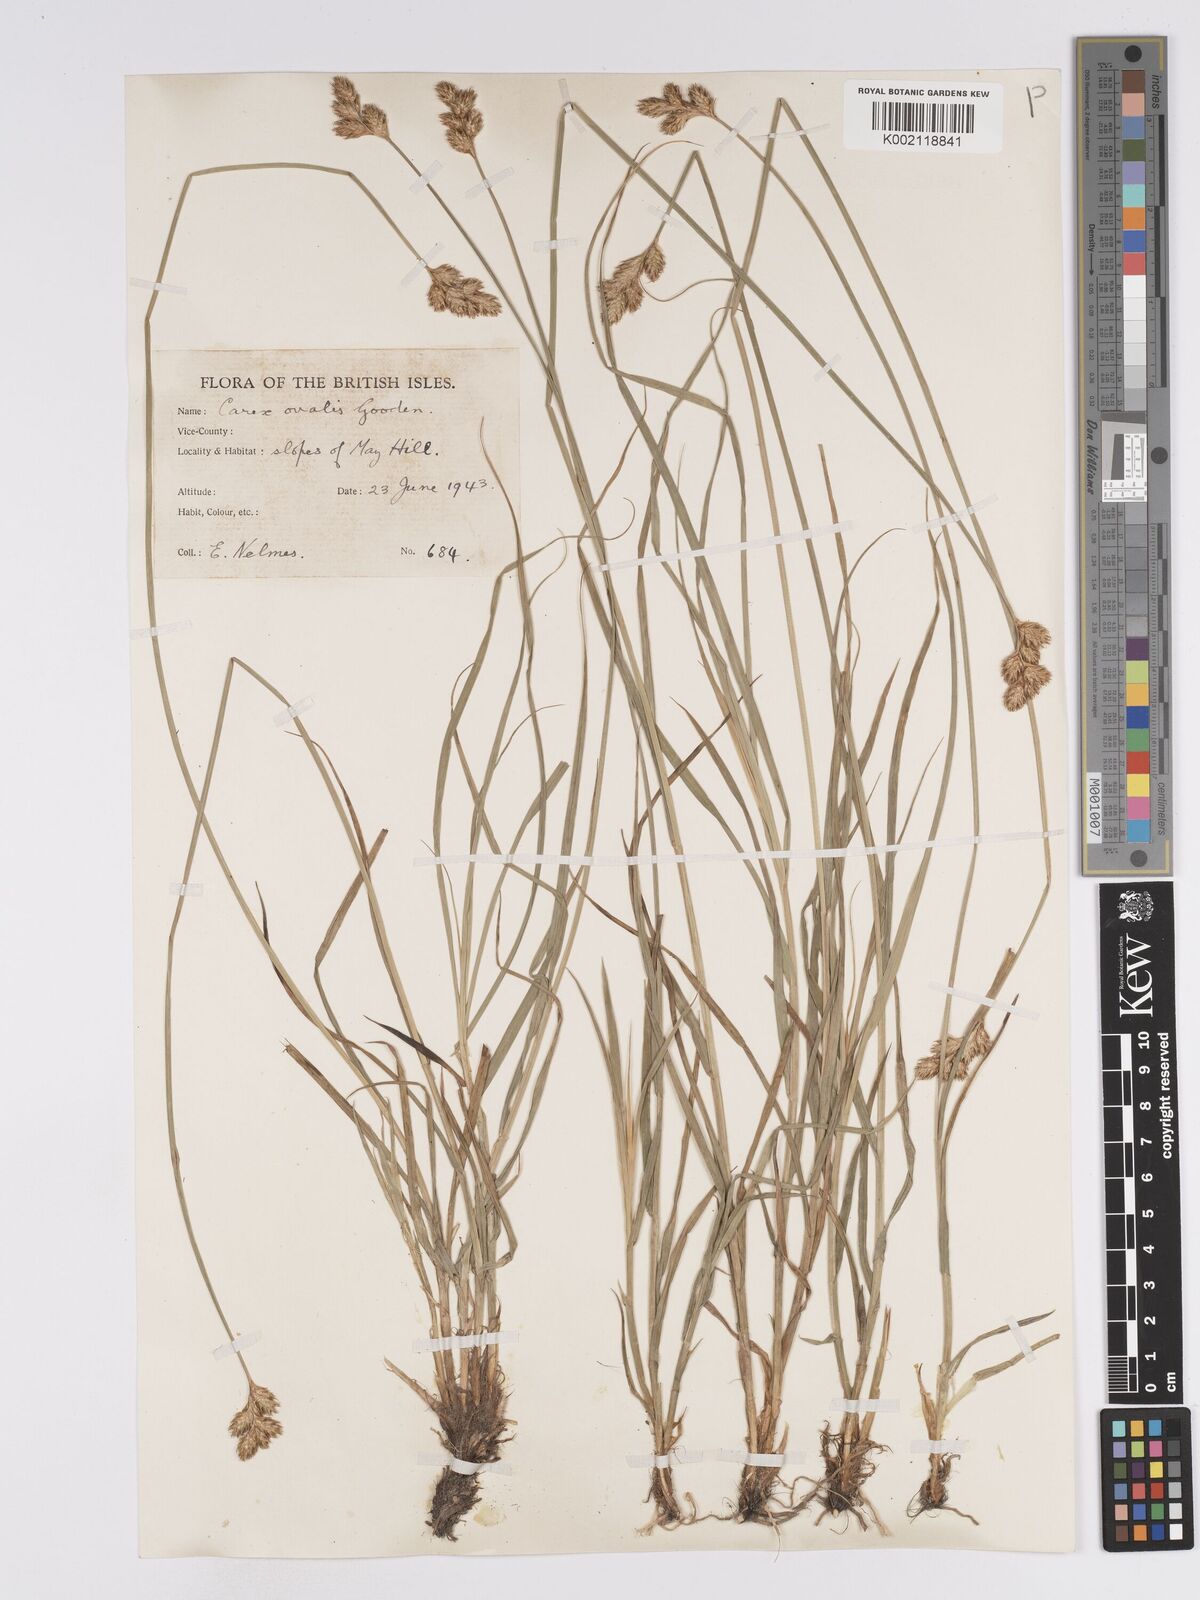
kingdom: Plantae
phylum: Tracheophyta
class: Liliopsida
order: Poales
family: Cyperaceae
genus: Carex
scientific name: Carex leporina
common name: Oval sedge
